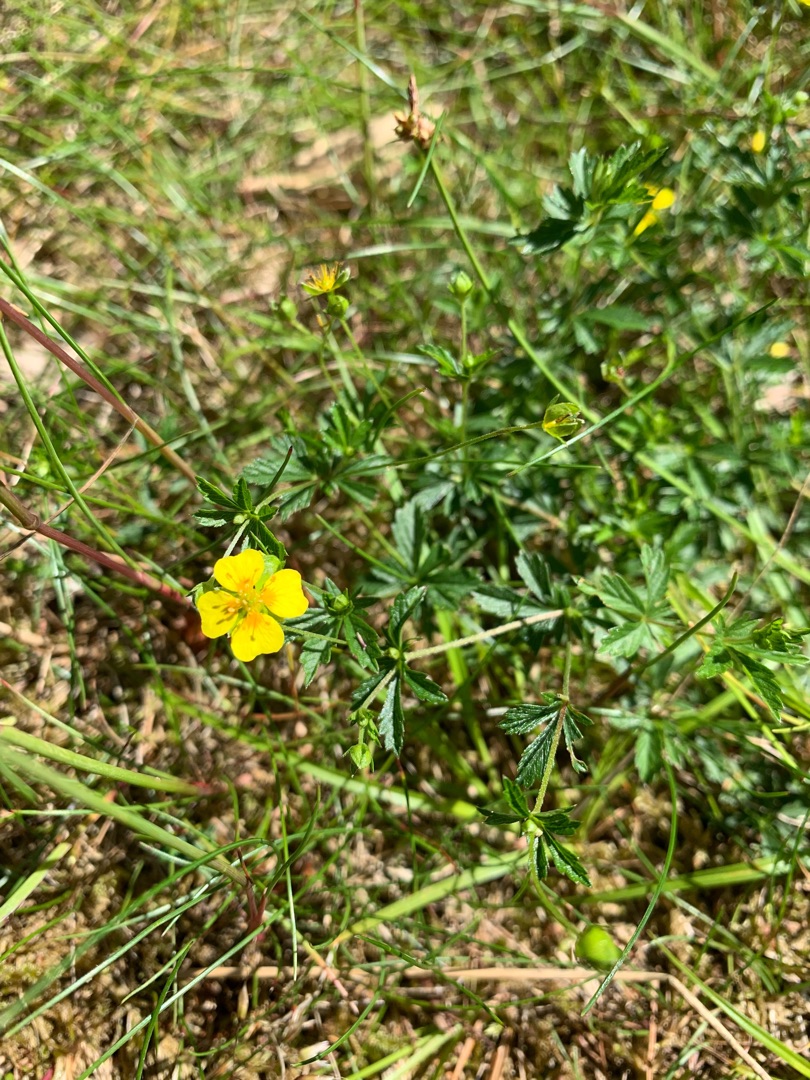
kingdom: Plantae
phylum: Tracheophyta
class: Magnoliopsida
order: Rosales
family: Rosaceae
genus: Potentilla
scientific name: Potentilla erecta
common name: Tormentil
